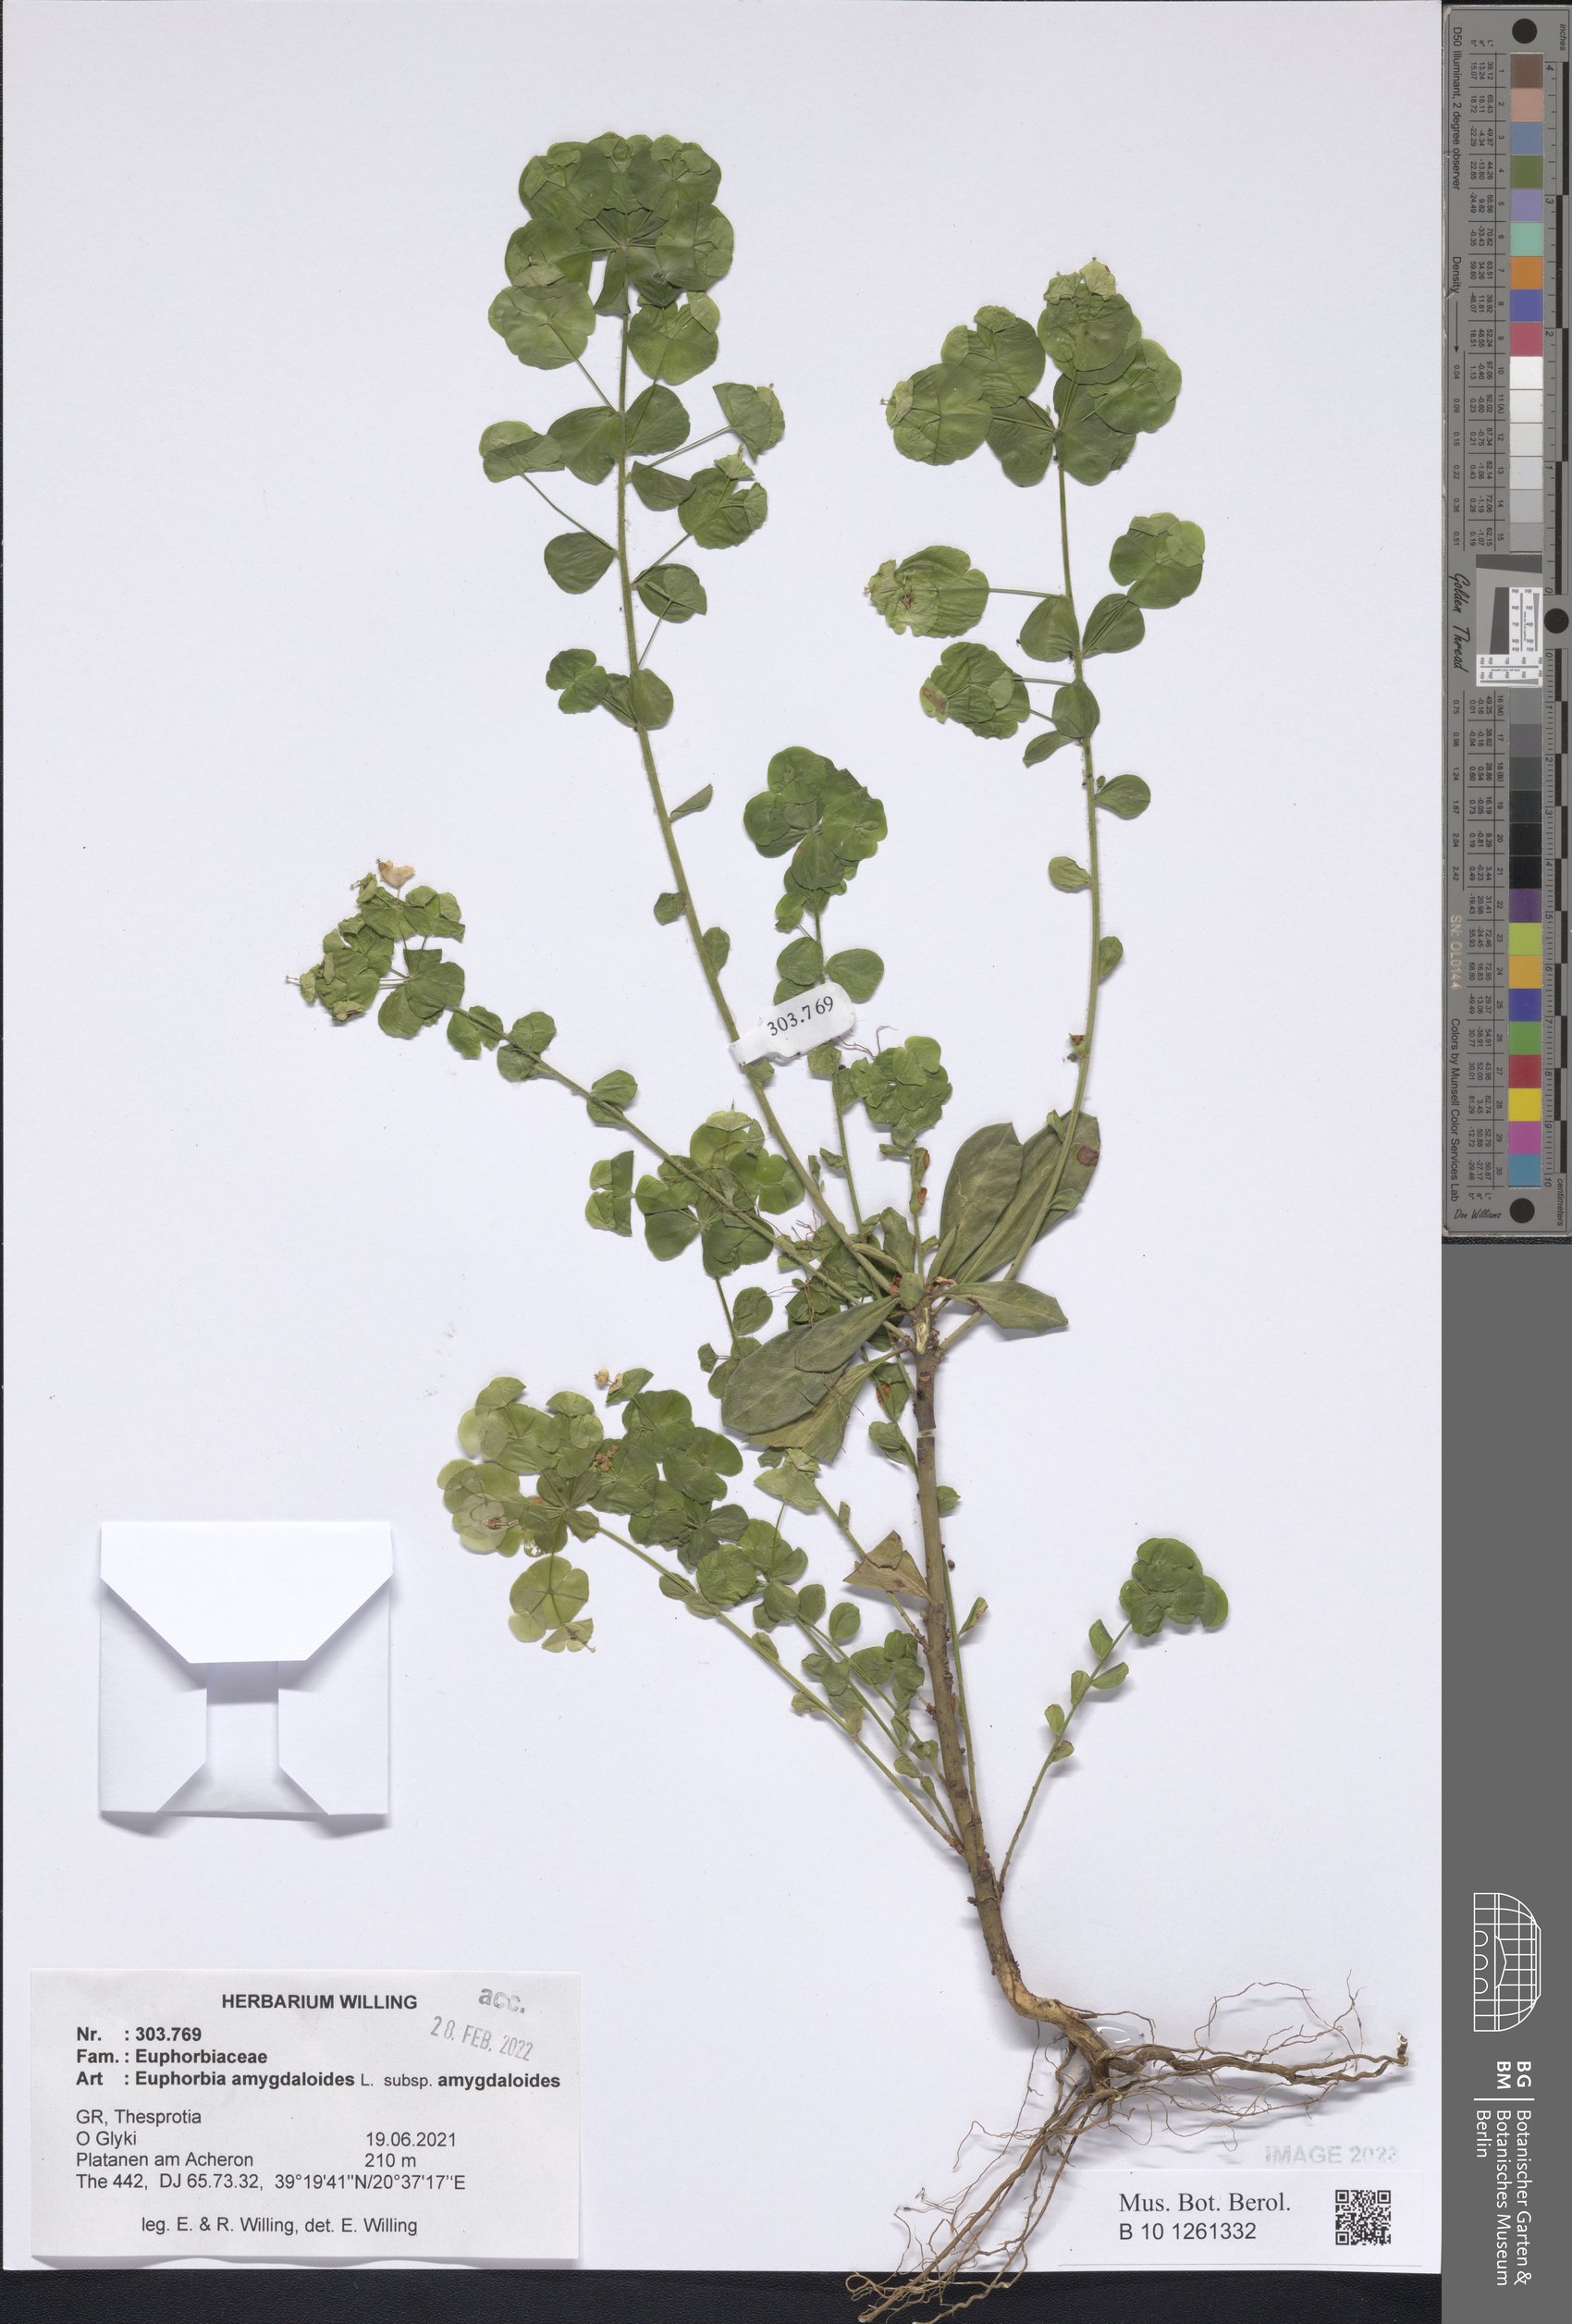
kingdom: Plantae
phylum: Tracheophyta
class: Magnoliopsida
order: Malpighiales
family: Euphorbiaceae
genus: Euphorbia
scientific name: Euphorbia amygdaloides
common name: Wood spurge
